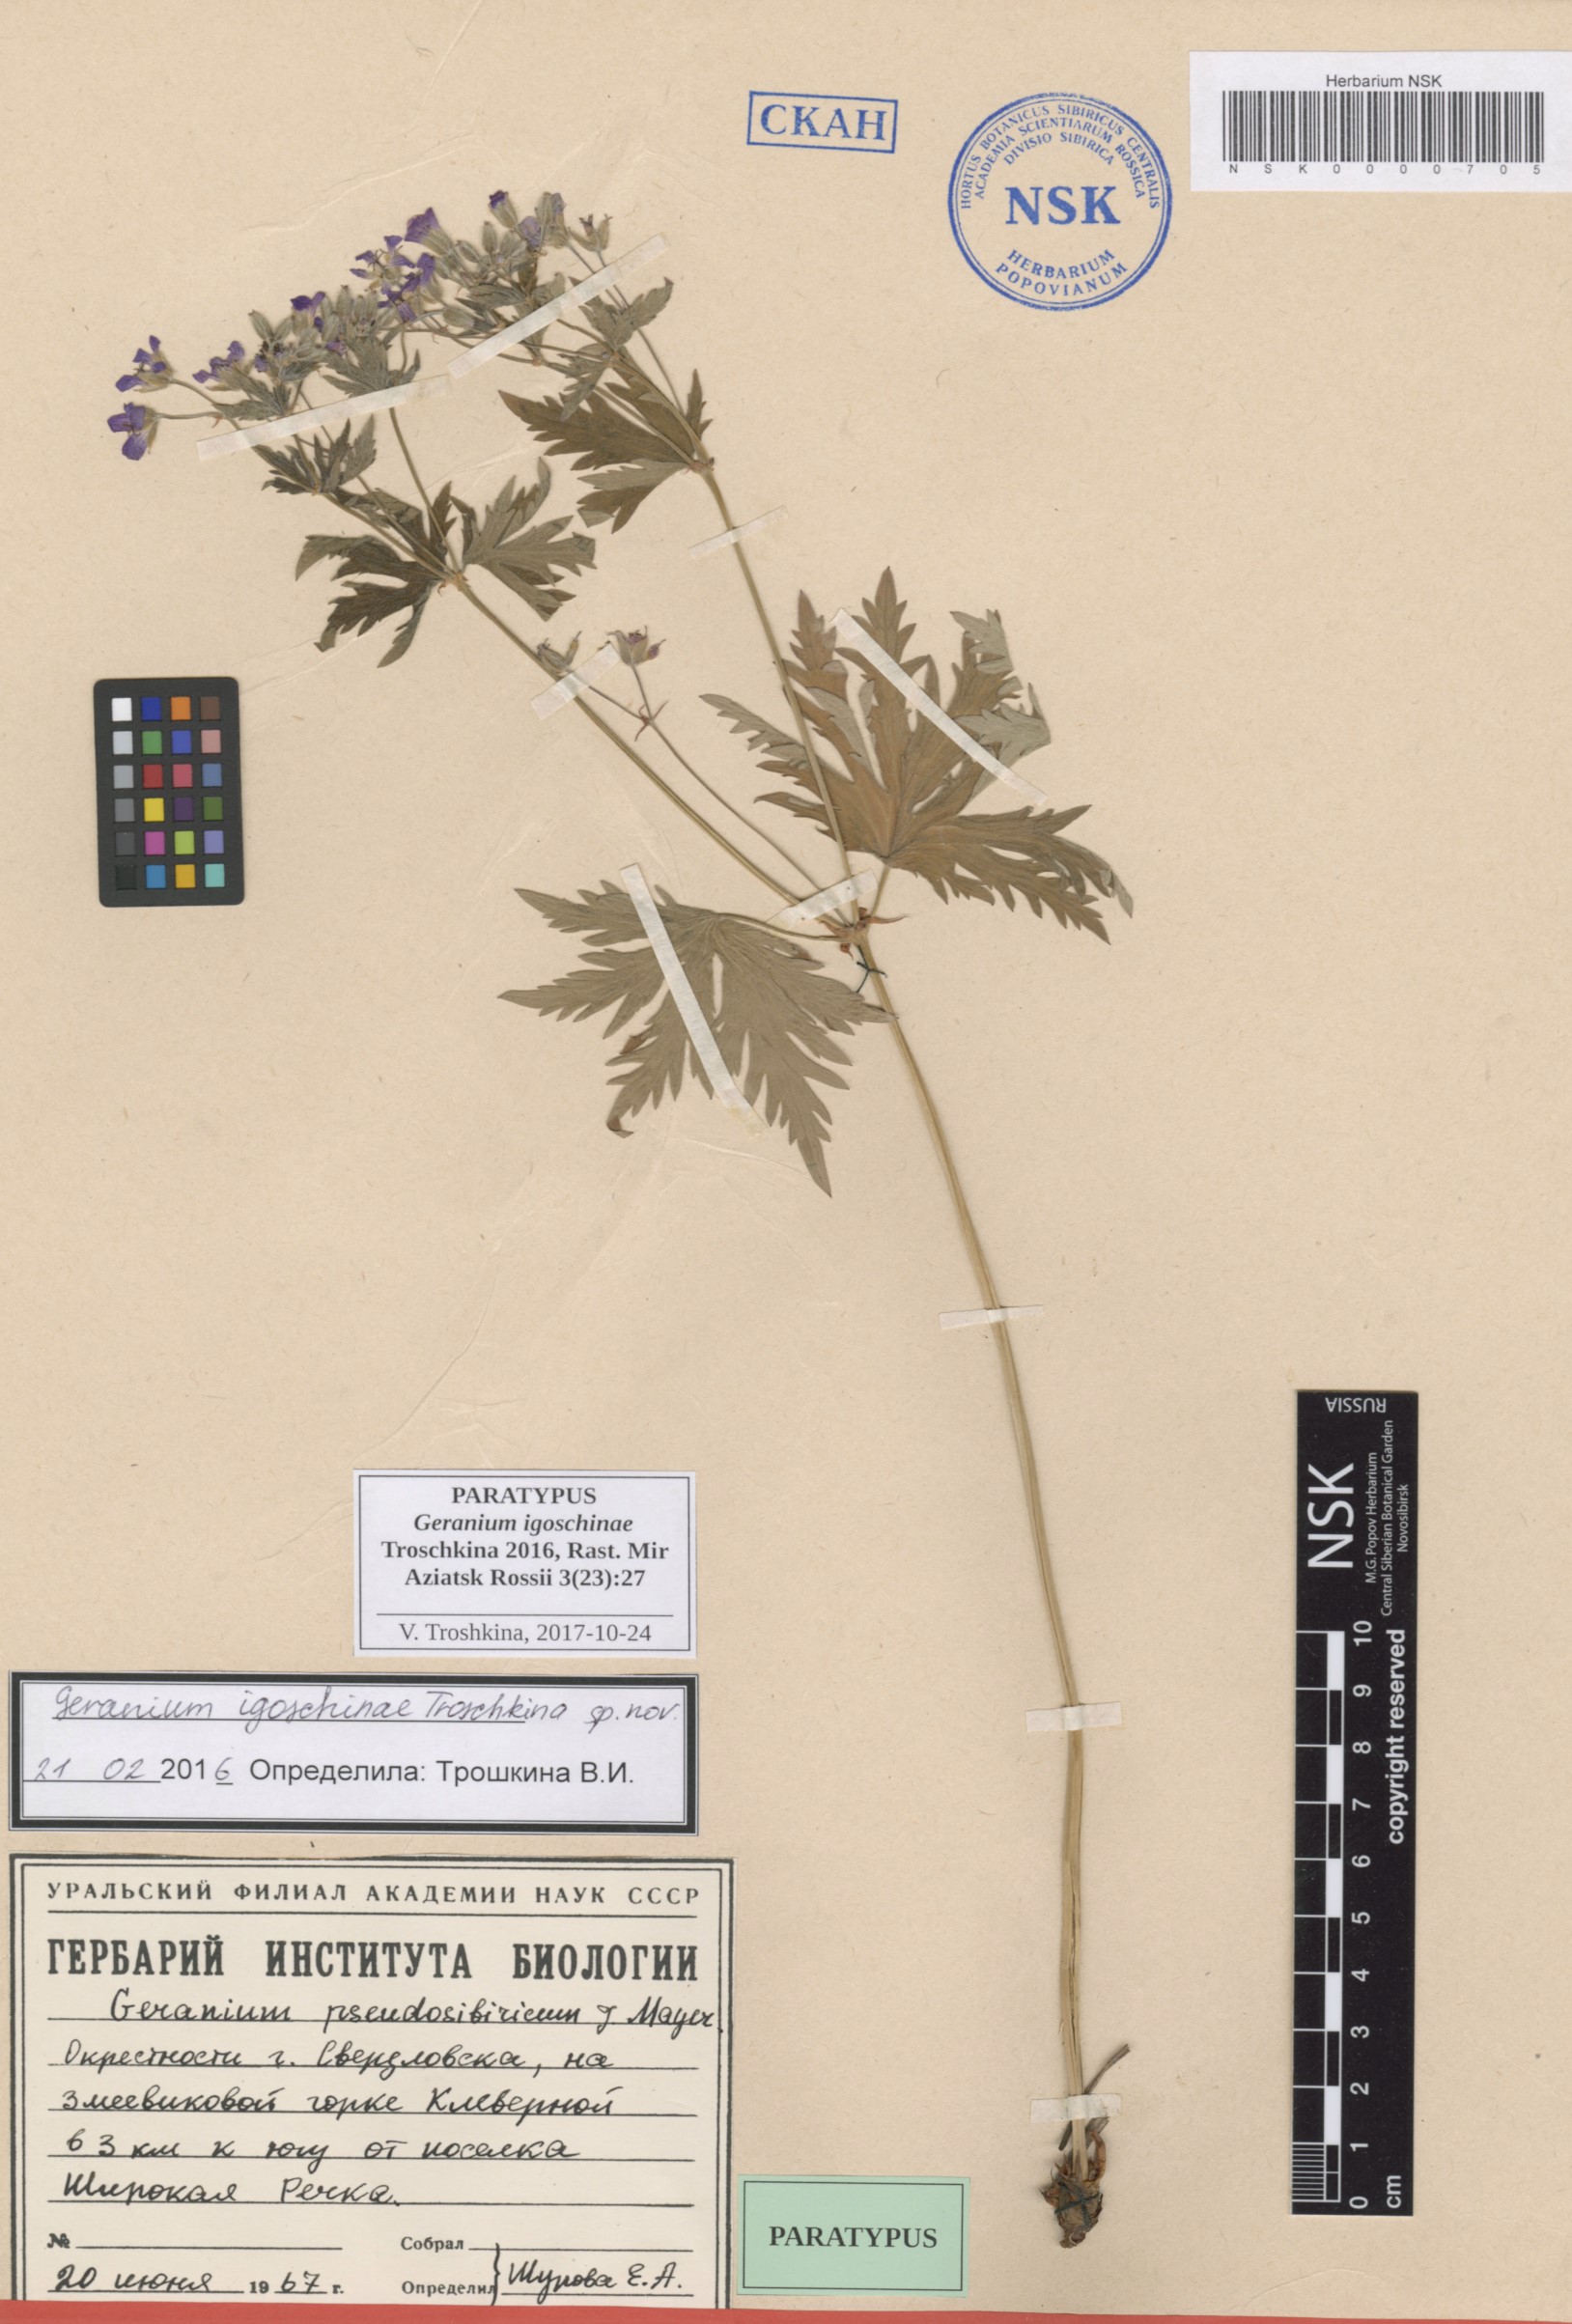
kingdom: Plantae
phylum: Tracheophyta
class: Magnoliopsida
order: Geraniales
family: Geraniaceae
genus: Geranium
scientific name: Geranium igoschinae
